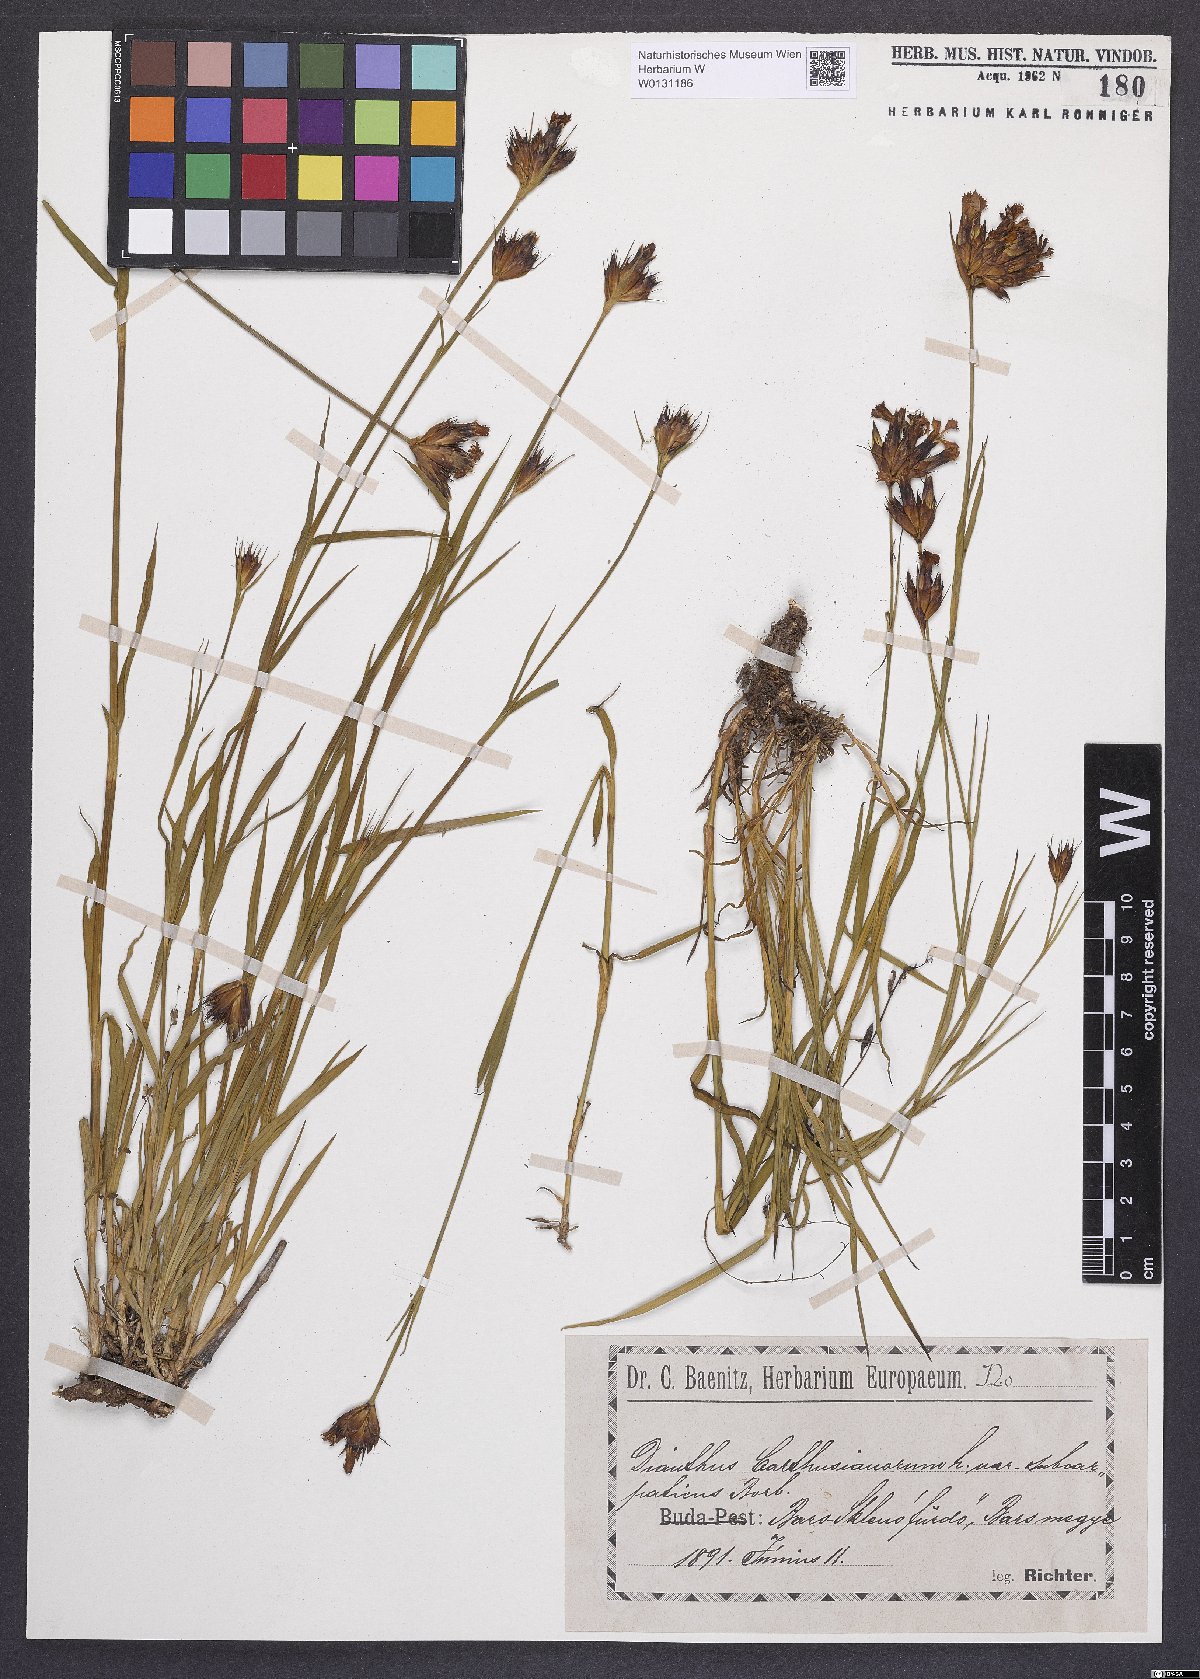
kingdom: Plantae
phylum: Tracheophyta
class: Magnoliopsida
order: Caryophyllales
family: Caryophyllaceae
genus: Dianthus
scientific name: Dianthus carthusianorum
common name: Carthusian pink
